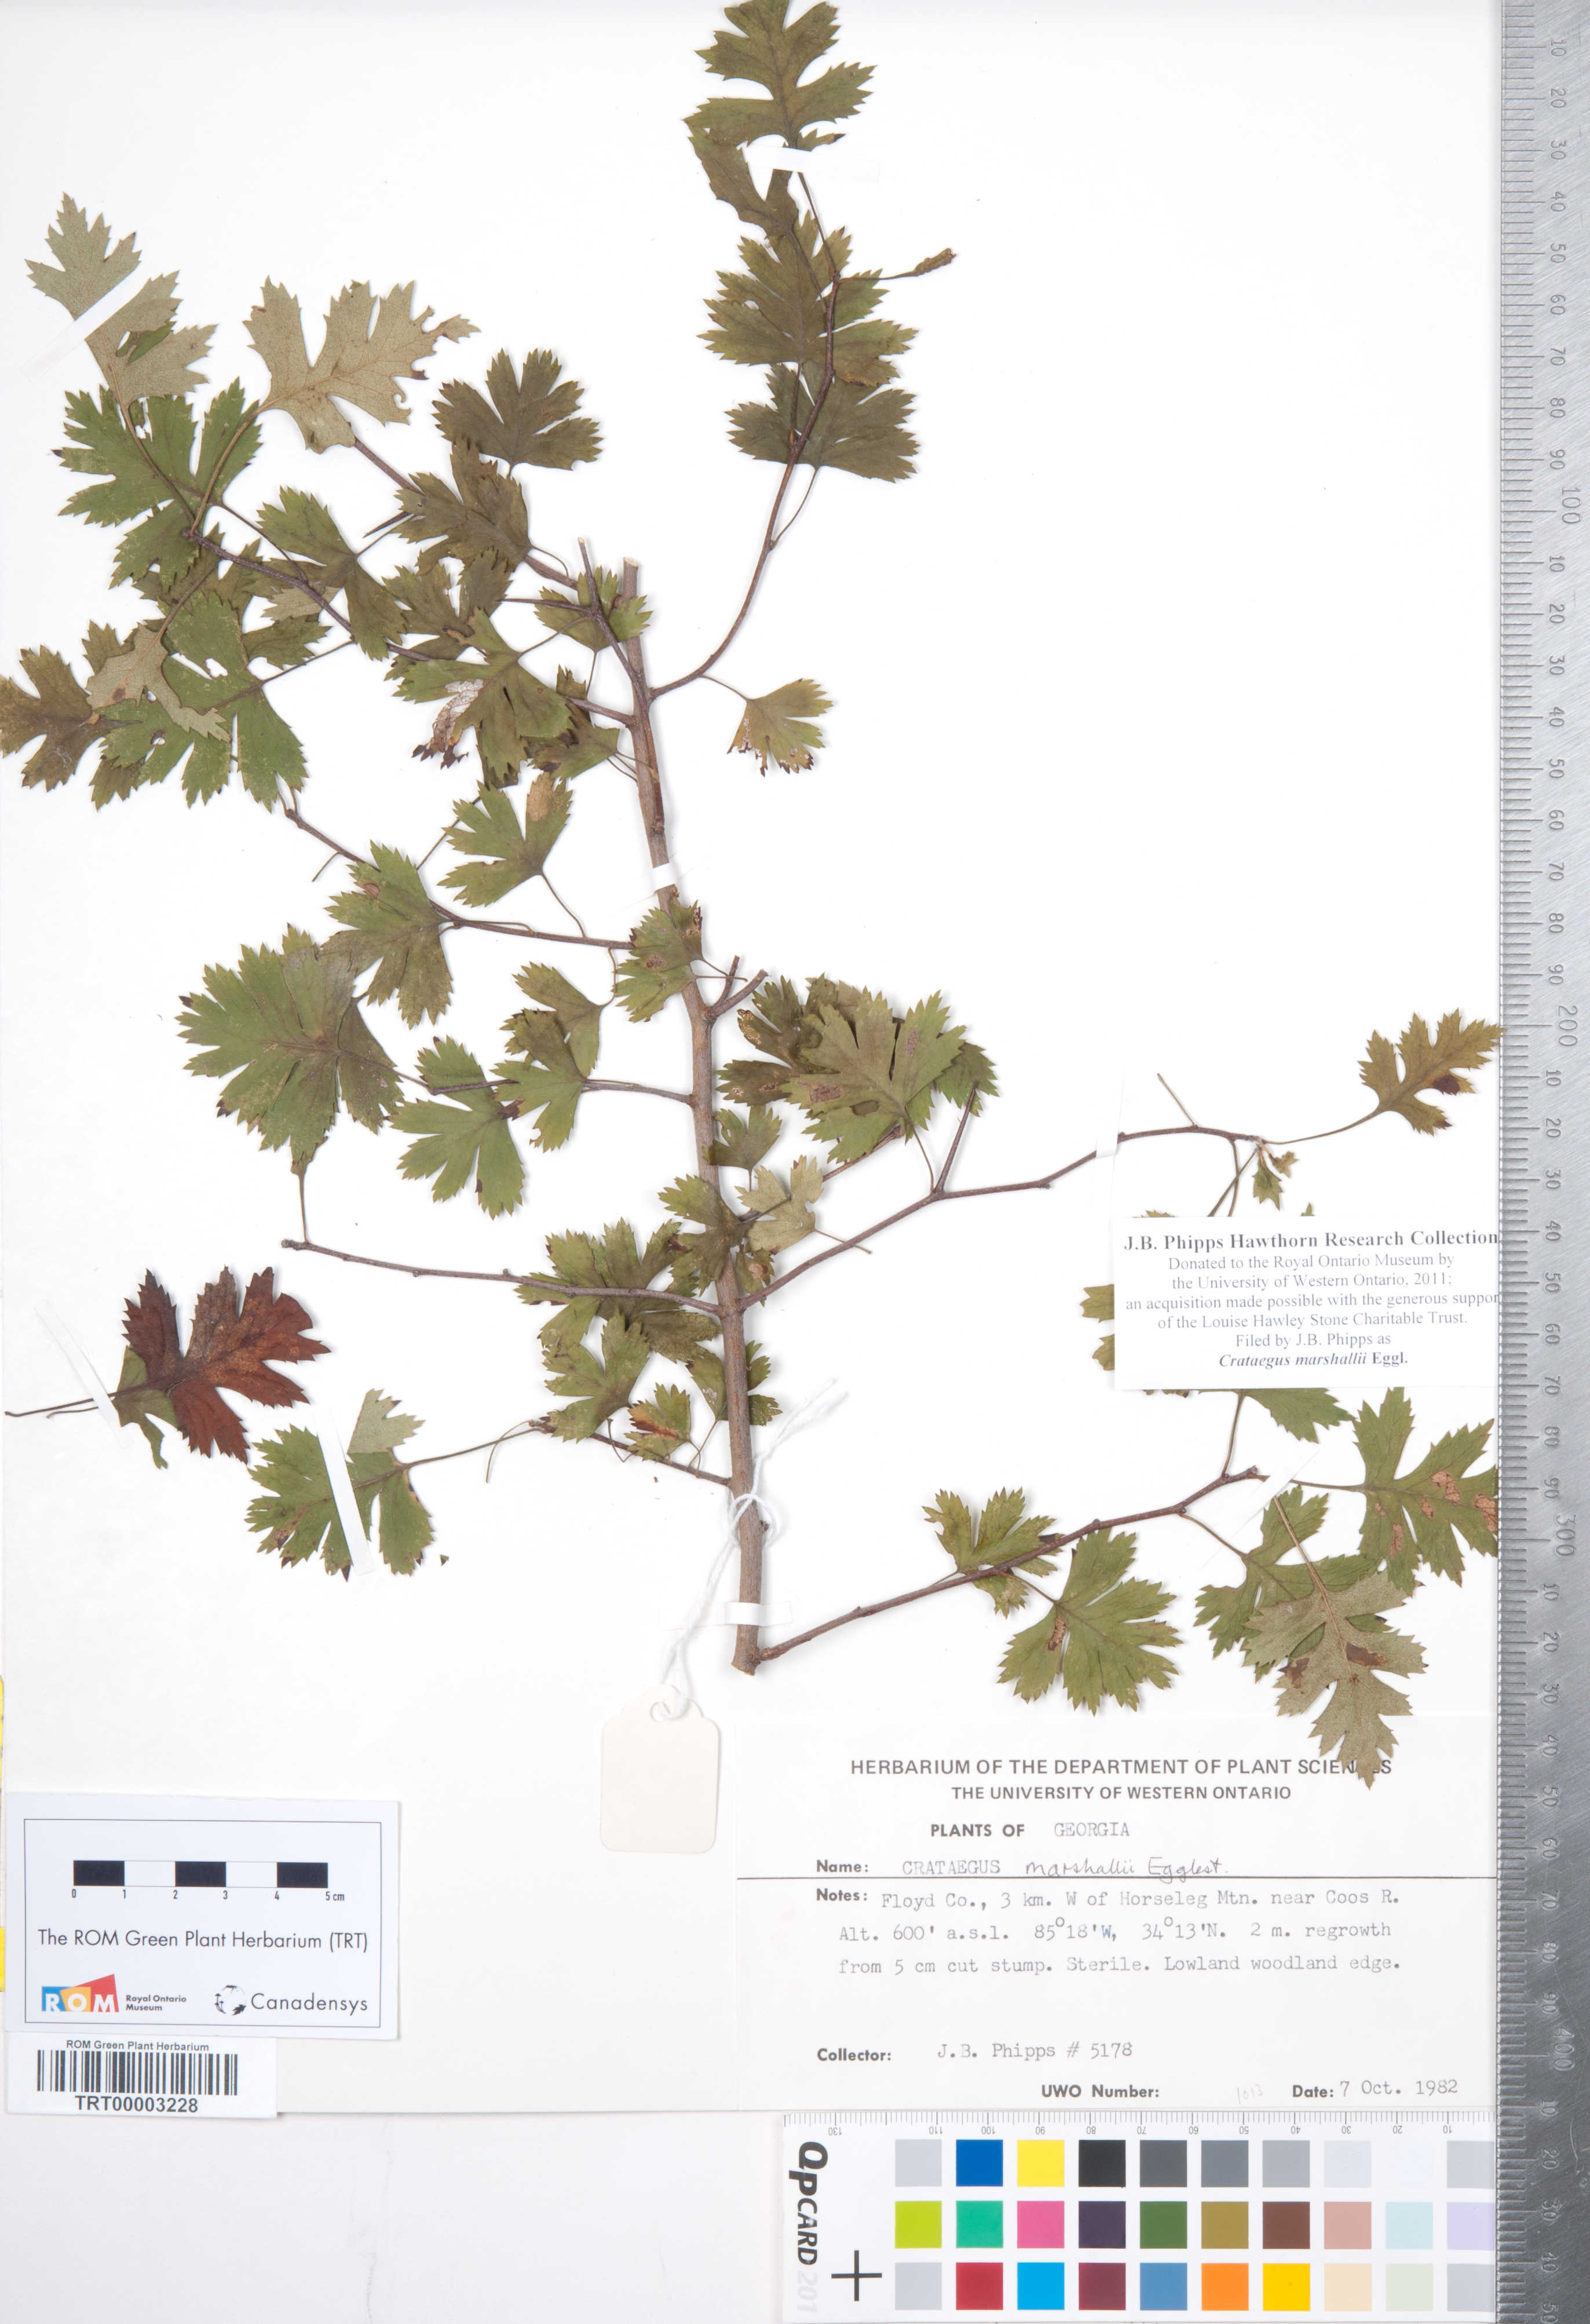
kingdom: Plantae
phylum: Tracheophyta
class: Magnoliopsida
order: Rosales
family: Rosaceae
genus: Crataegus
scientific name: Crataegus marshallii
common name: Parsley-hawthorn
